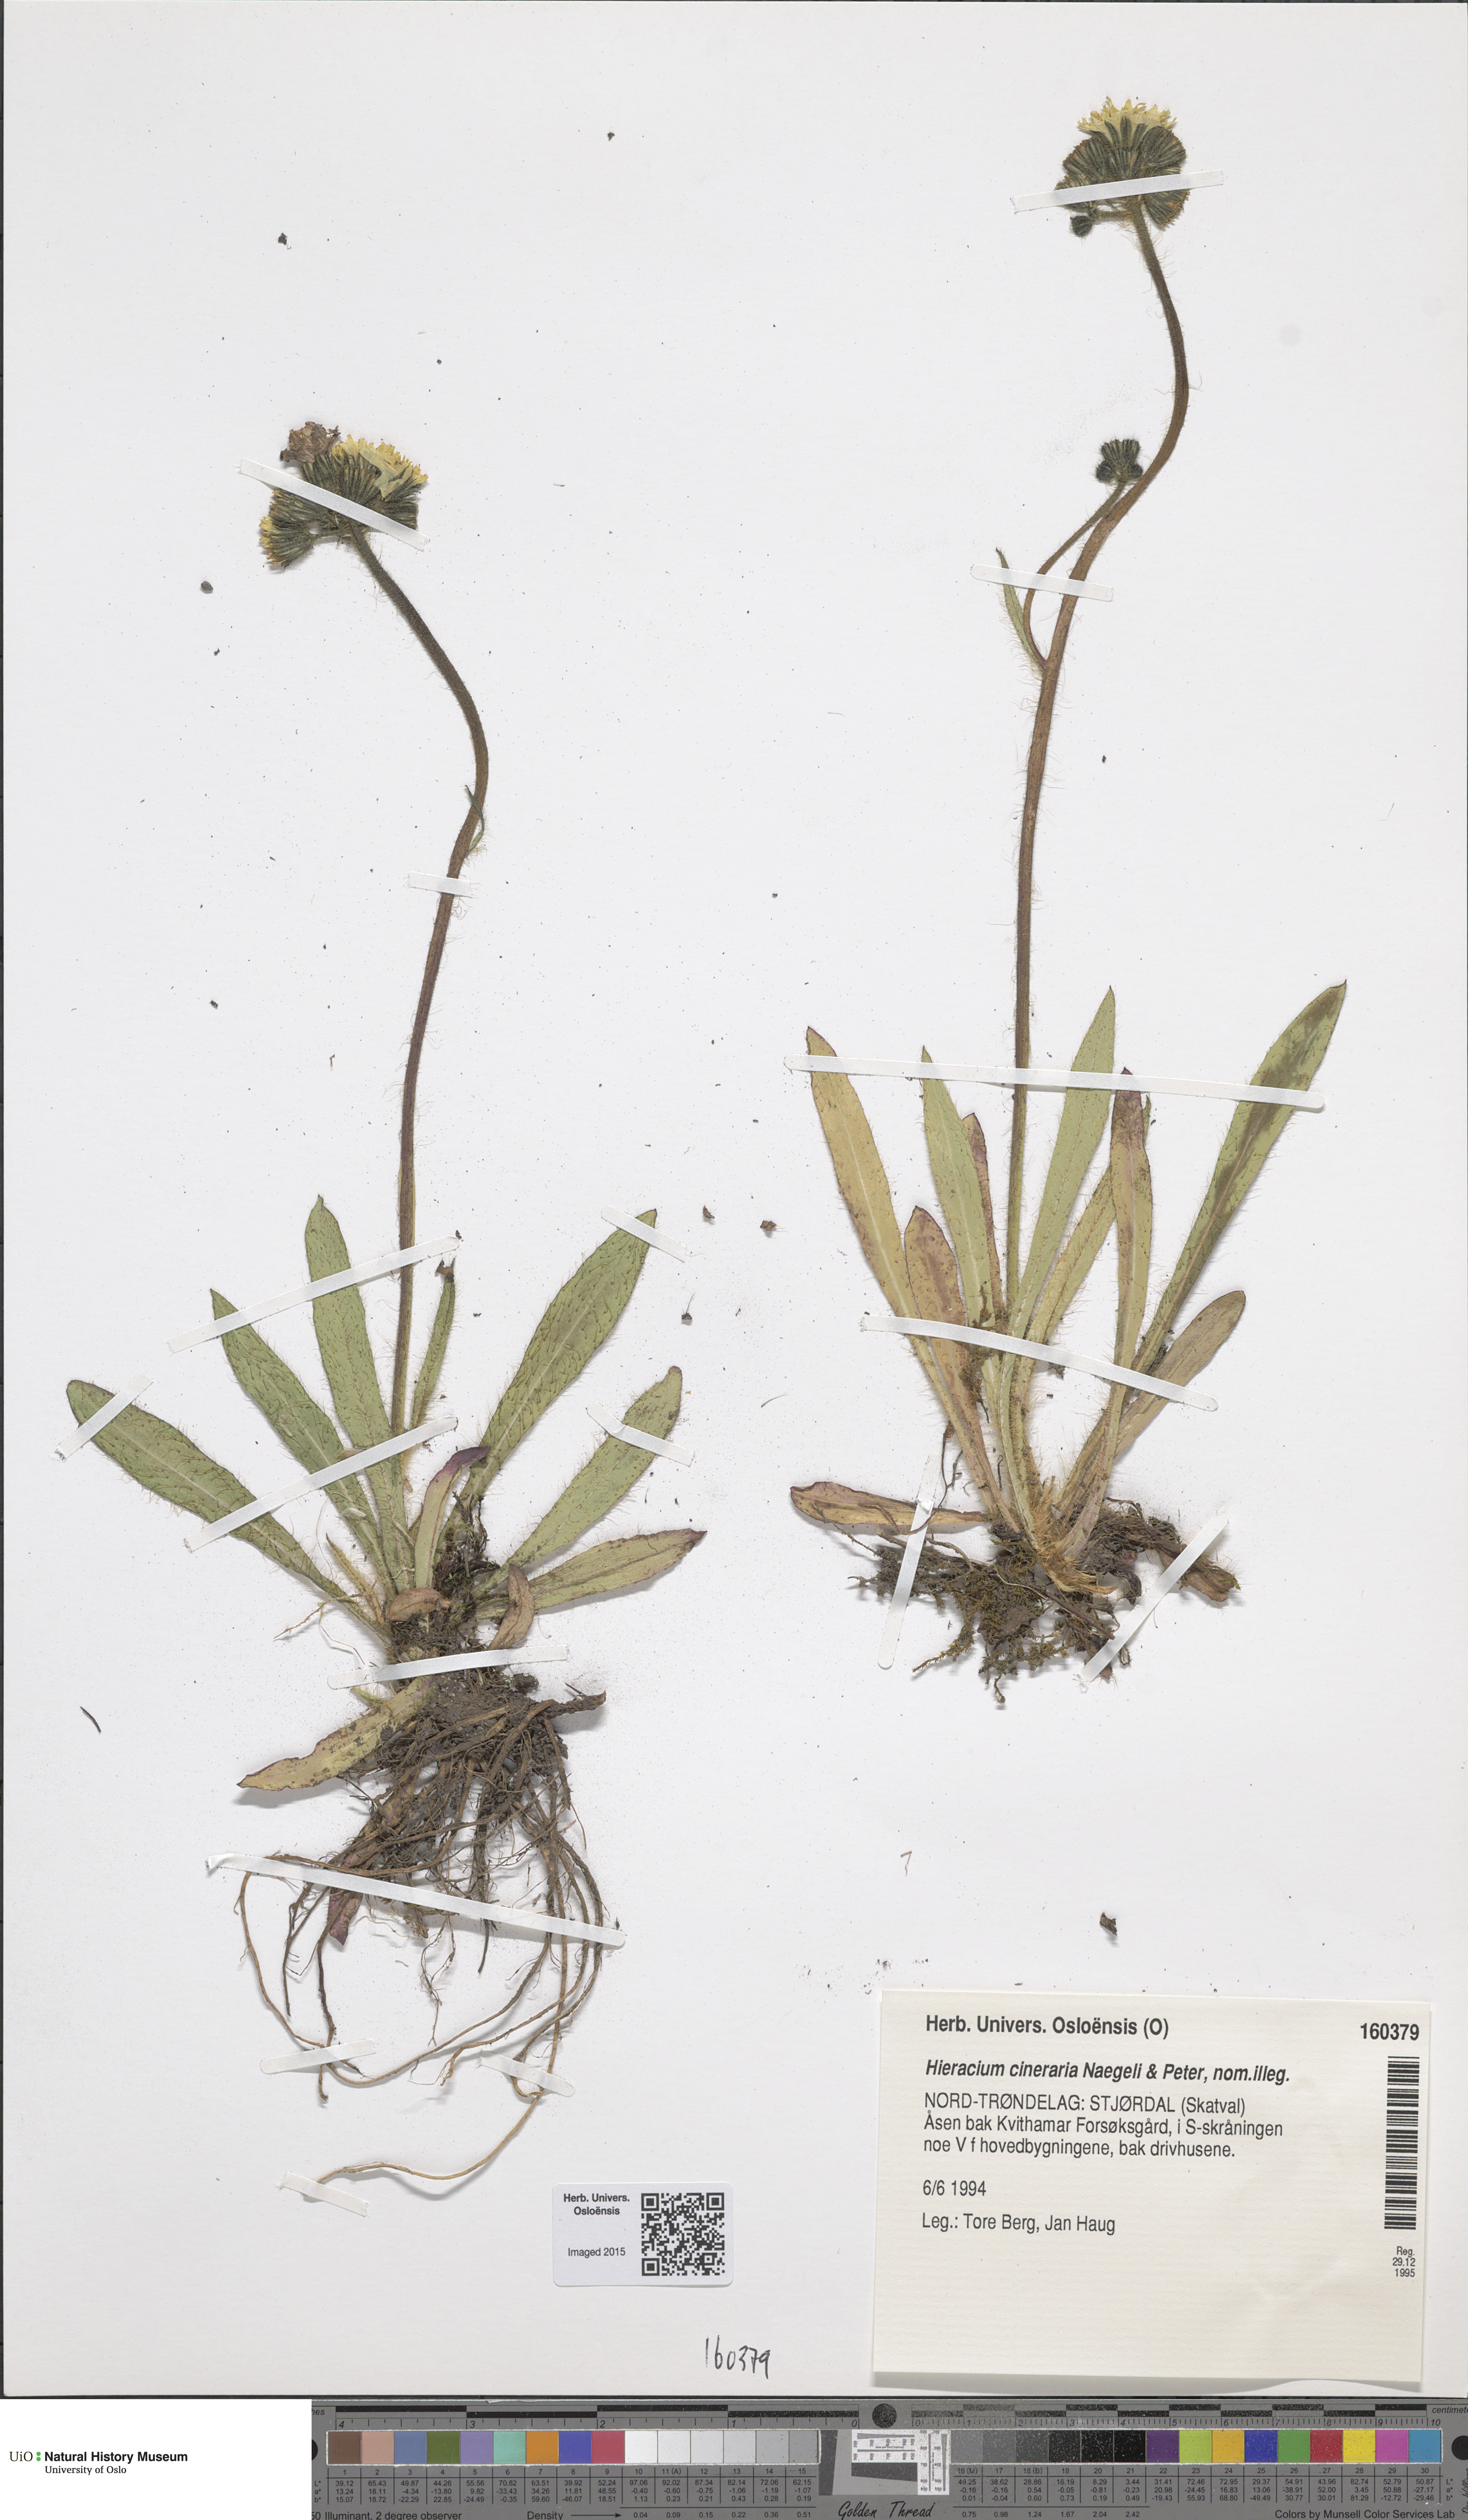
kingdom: Plantae
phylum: Tracheophyta
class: Magnoliopsida
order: Asterales
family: Asteraceae
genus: Pilosella
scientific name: Pilosella moechiadia
